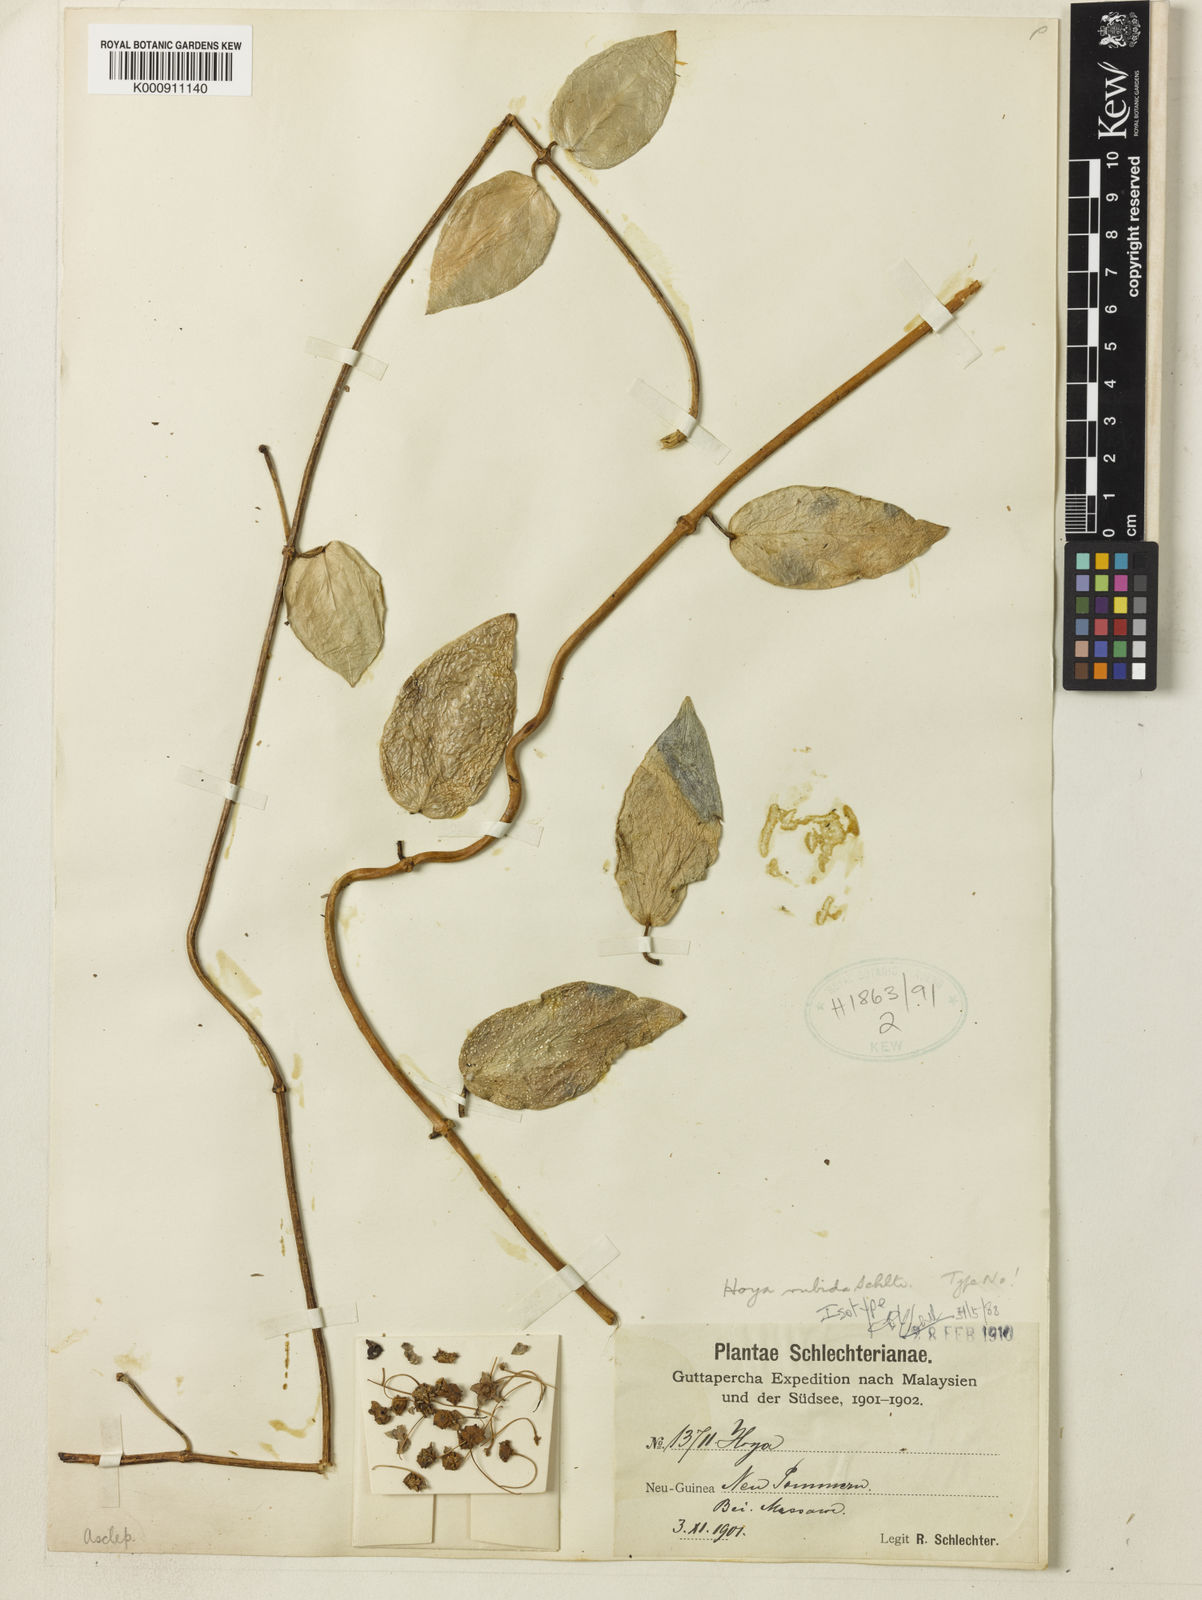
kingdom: Plantae
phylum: Tracheophyta
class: Magnoliopsida
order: Gentianales
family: Apocynaceae
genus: Hoya
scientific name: Hoya globulifera
